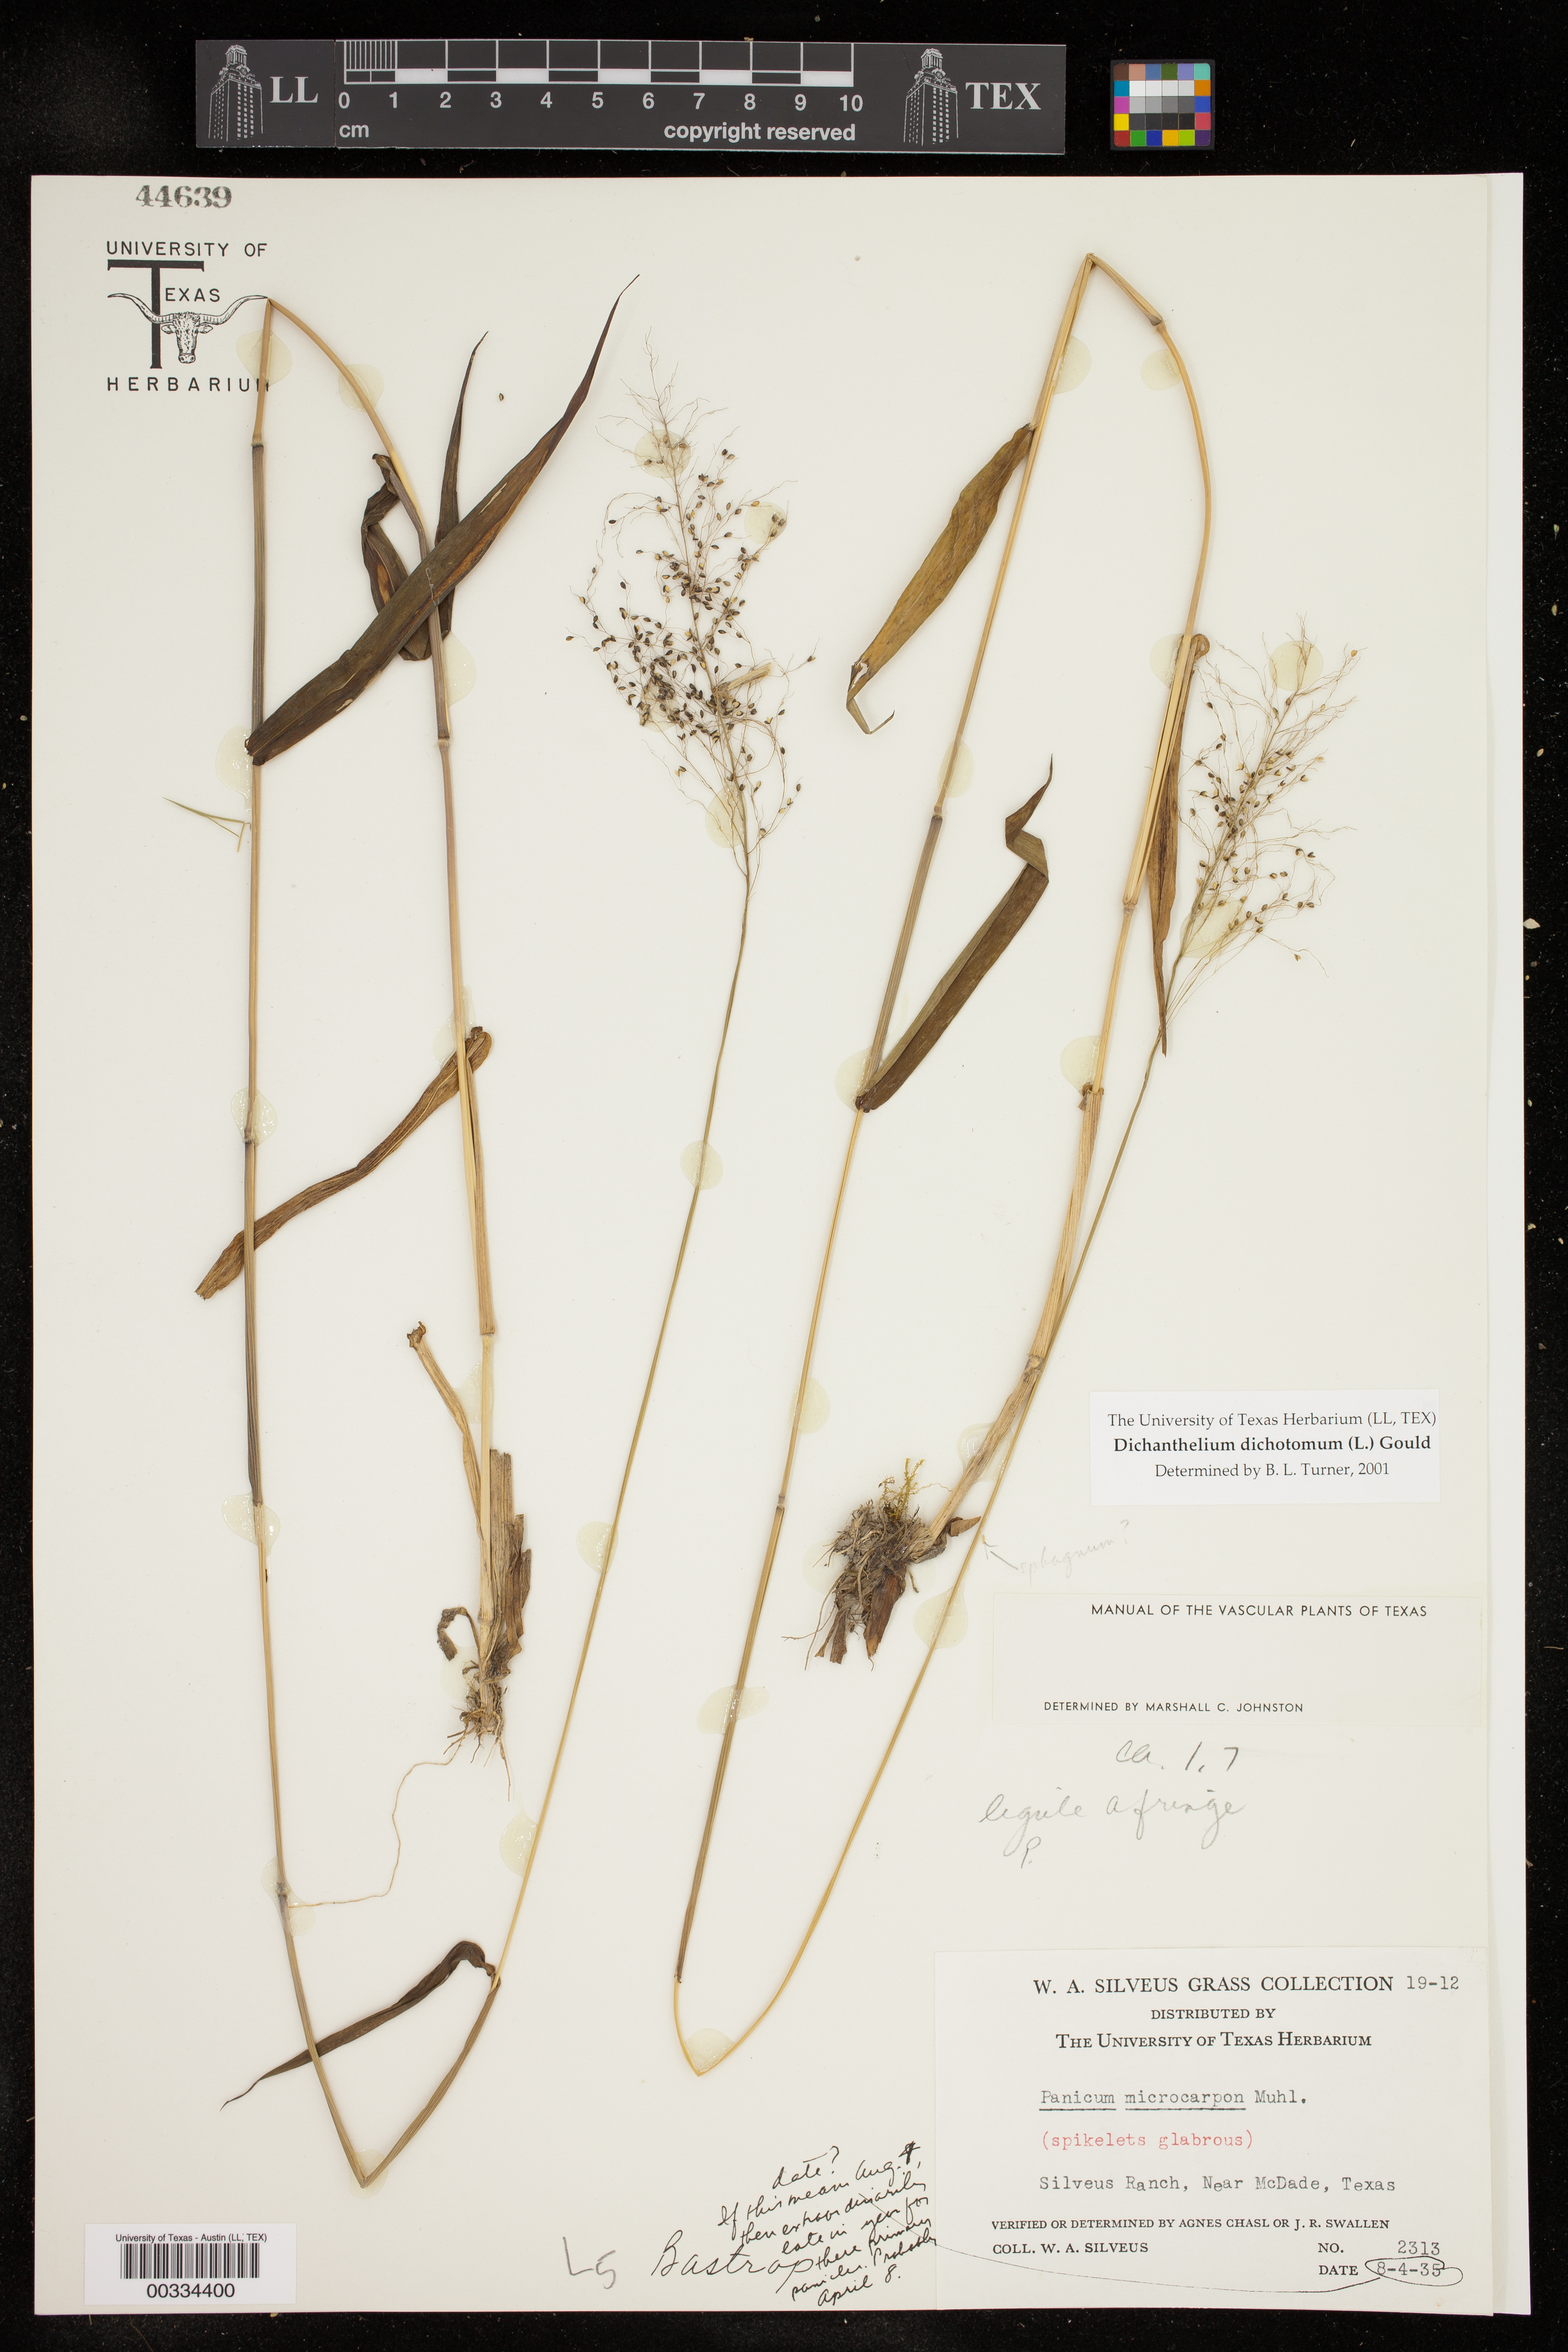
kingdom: Plantae
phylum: Tracheophyta
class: Liliopsida
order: Poales
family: Poaceae
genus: Dichanthelium
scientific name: Dichanthelium dichotomum
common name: Cypress panicgrass
